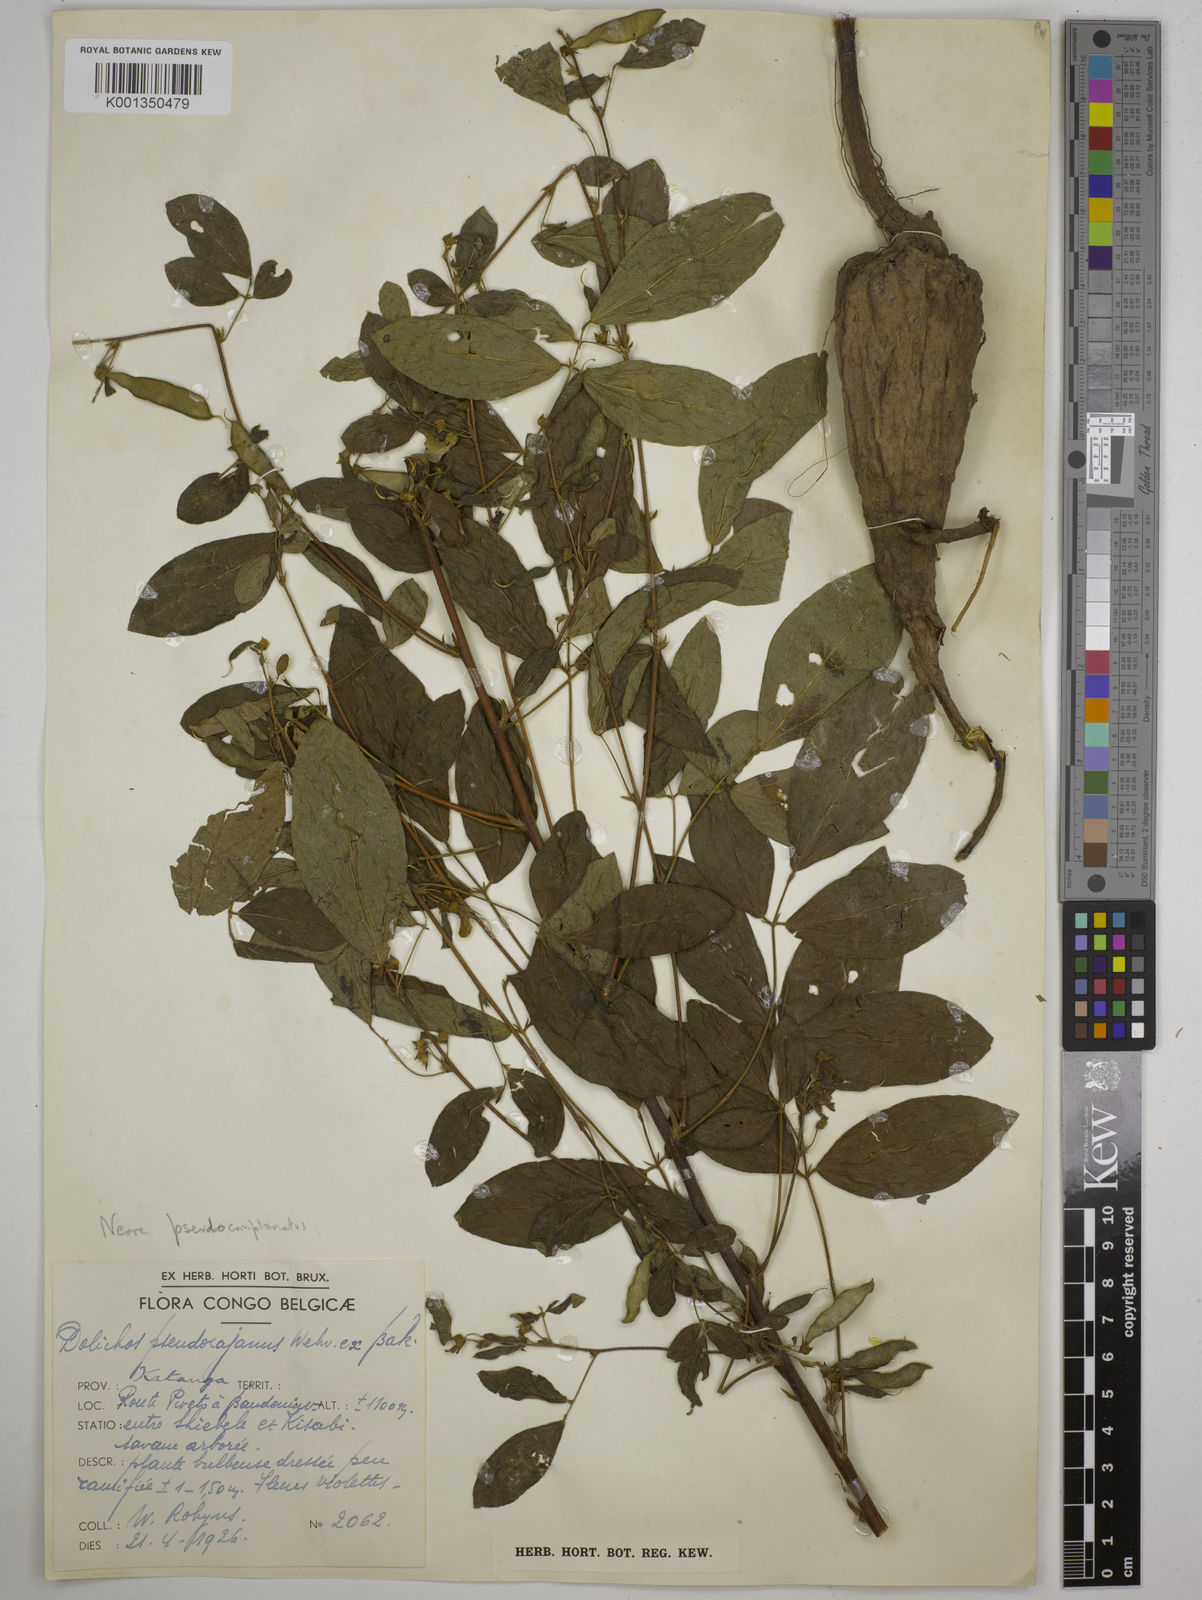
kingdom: Plantae
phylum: Tracheophyta
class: Magnoliopsida
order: Fabales
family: Fabaceae
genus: Dolichos
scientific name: Dolichos pseudocajanus
